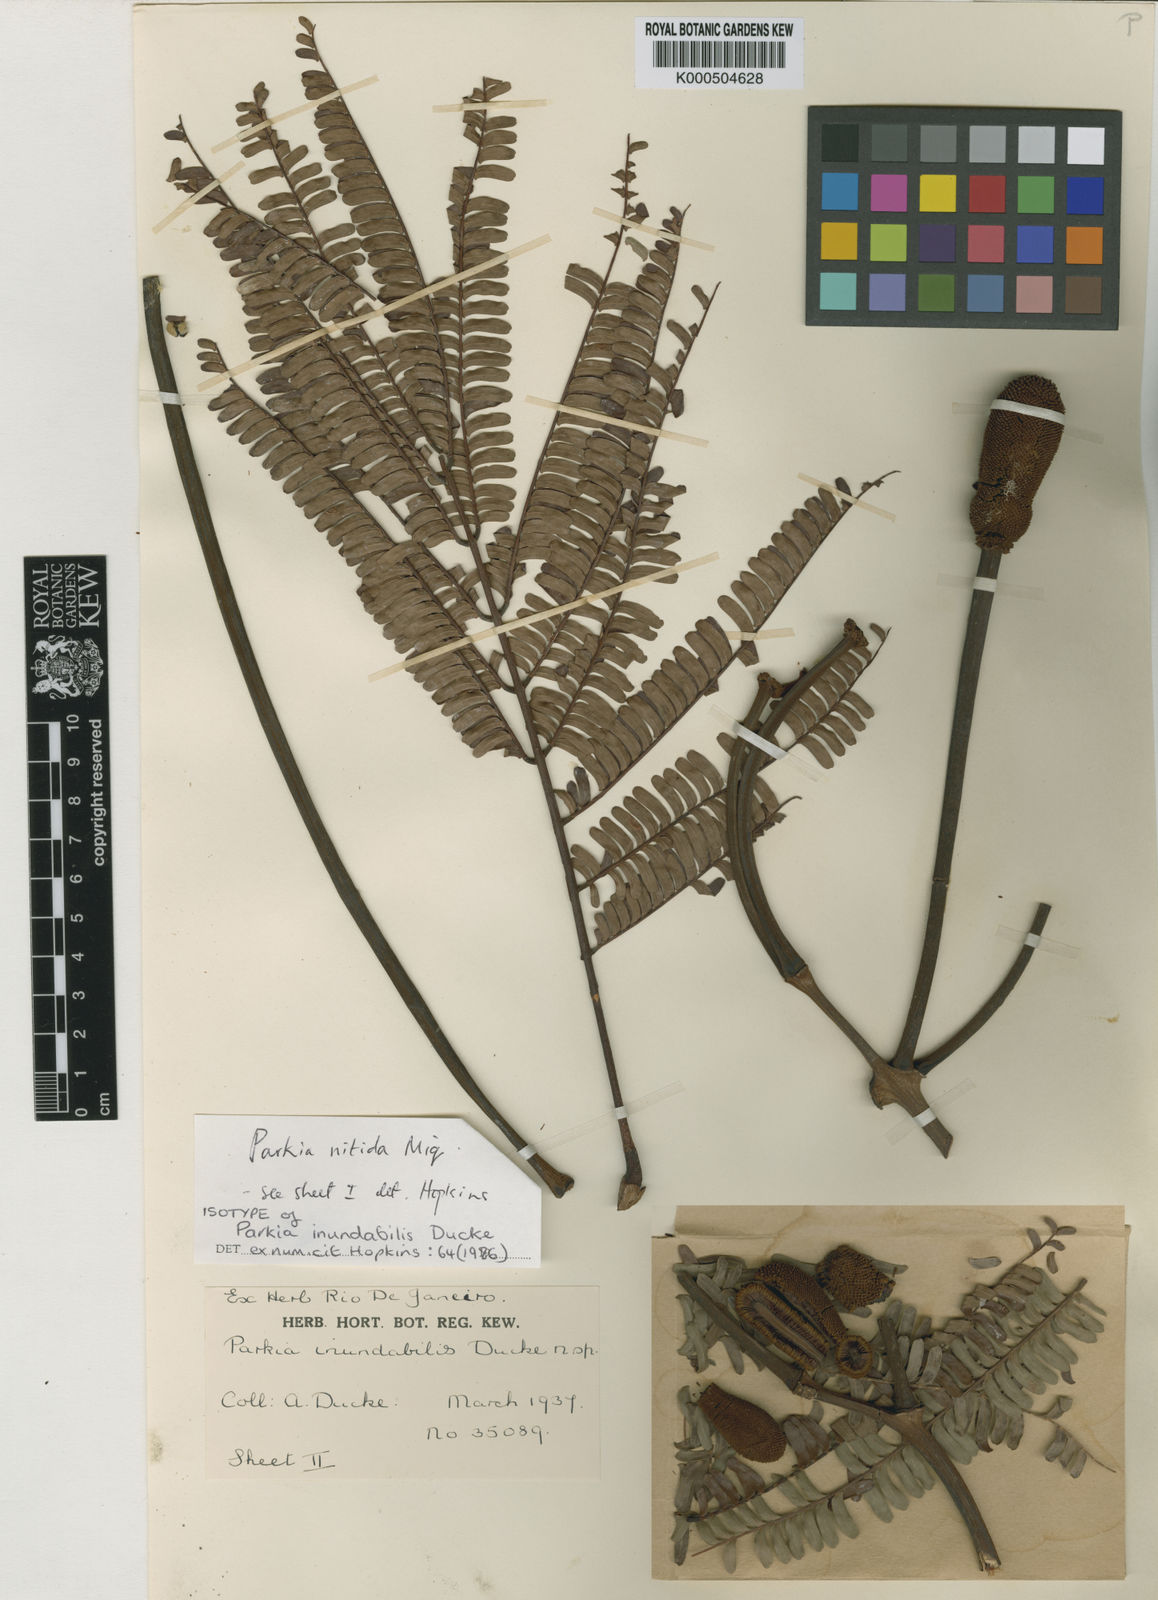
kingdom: Plantae
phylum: Tracheophyta
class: Magnoliopsida
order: Fabales
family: Fabaceae
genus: Parkia
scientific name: Parkia nitida
